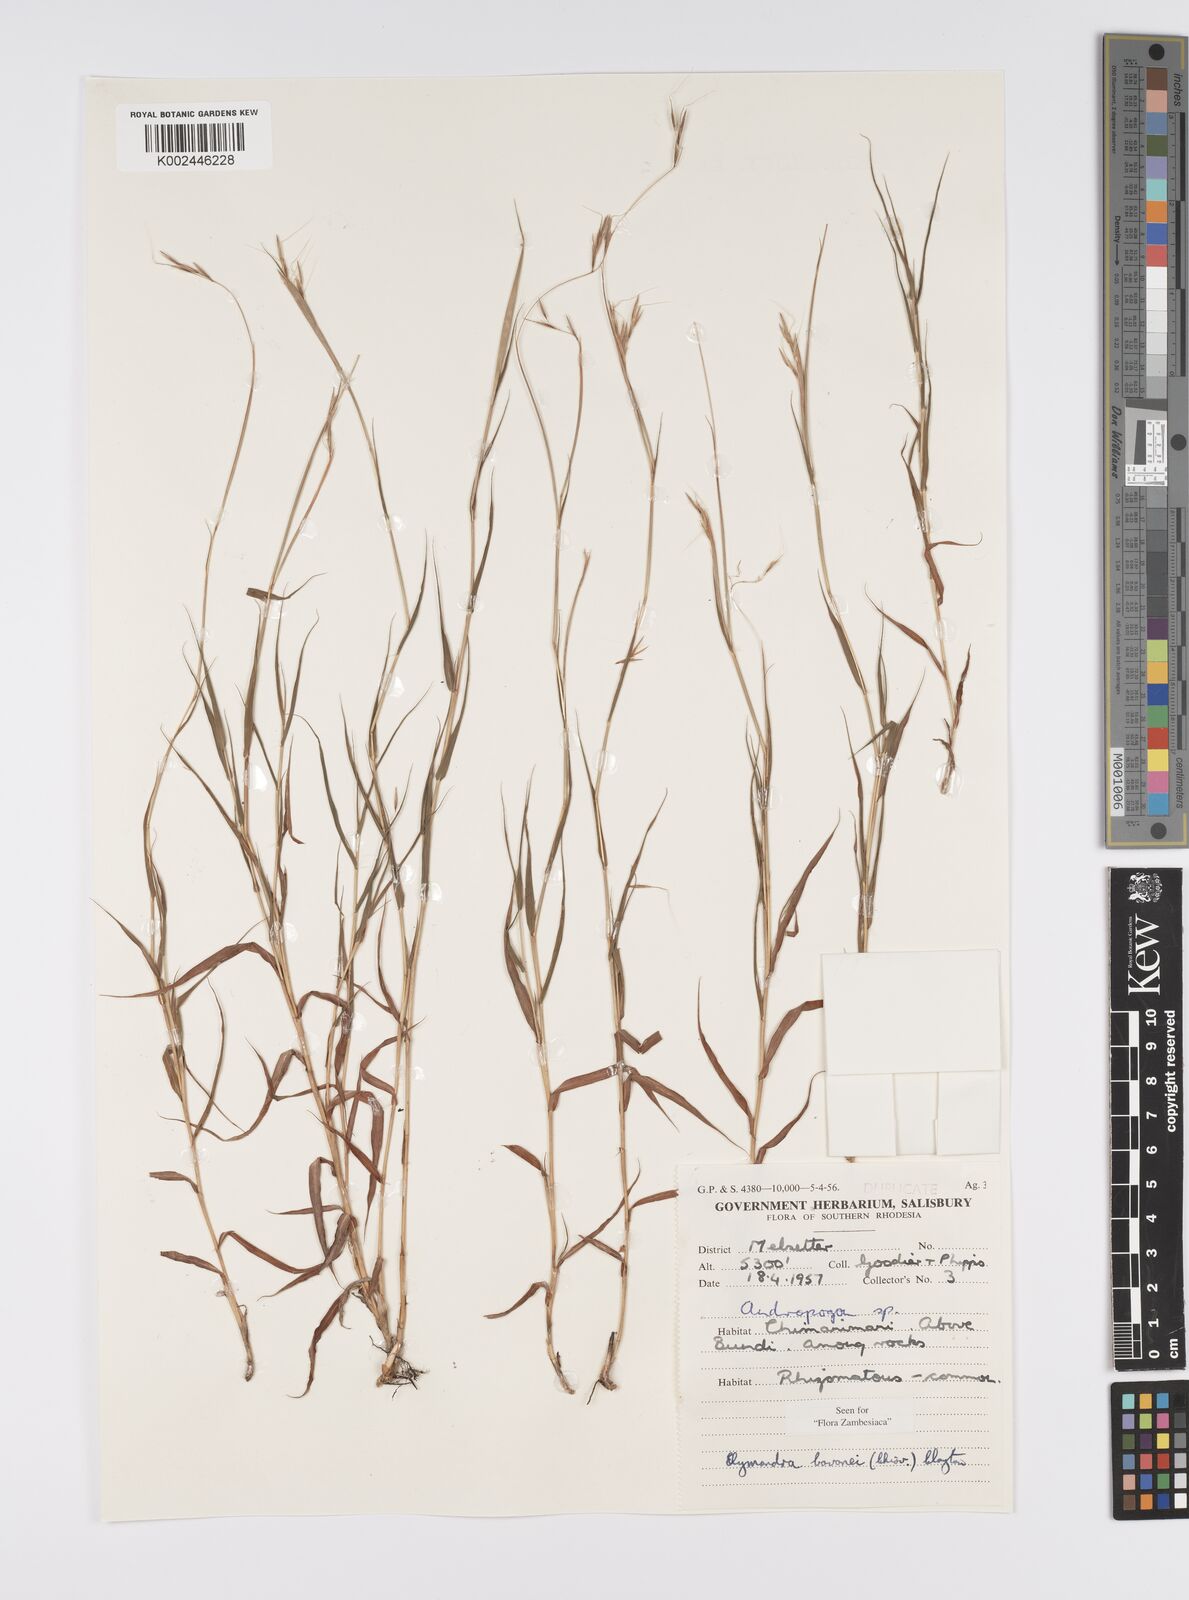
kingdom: Plantae
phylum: Tracheophyta
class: Liliopsida
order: Poales
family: Poaceae
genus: Elymandra
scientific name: Elymandra lithophila
